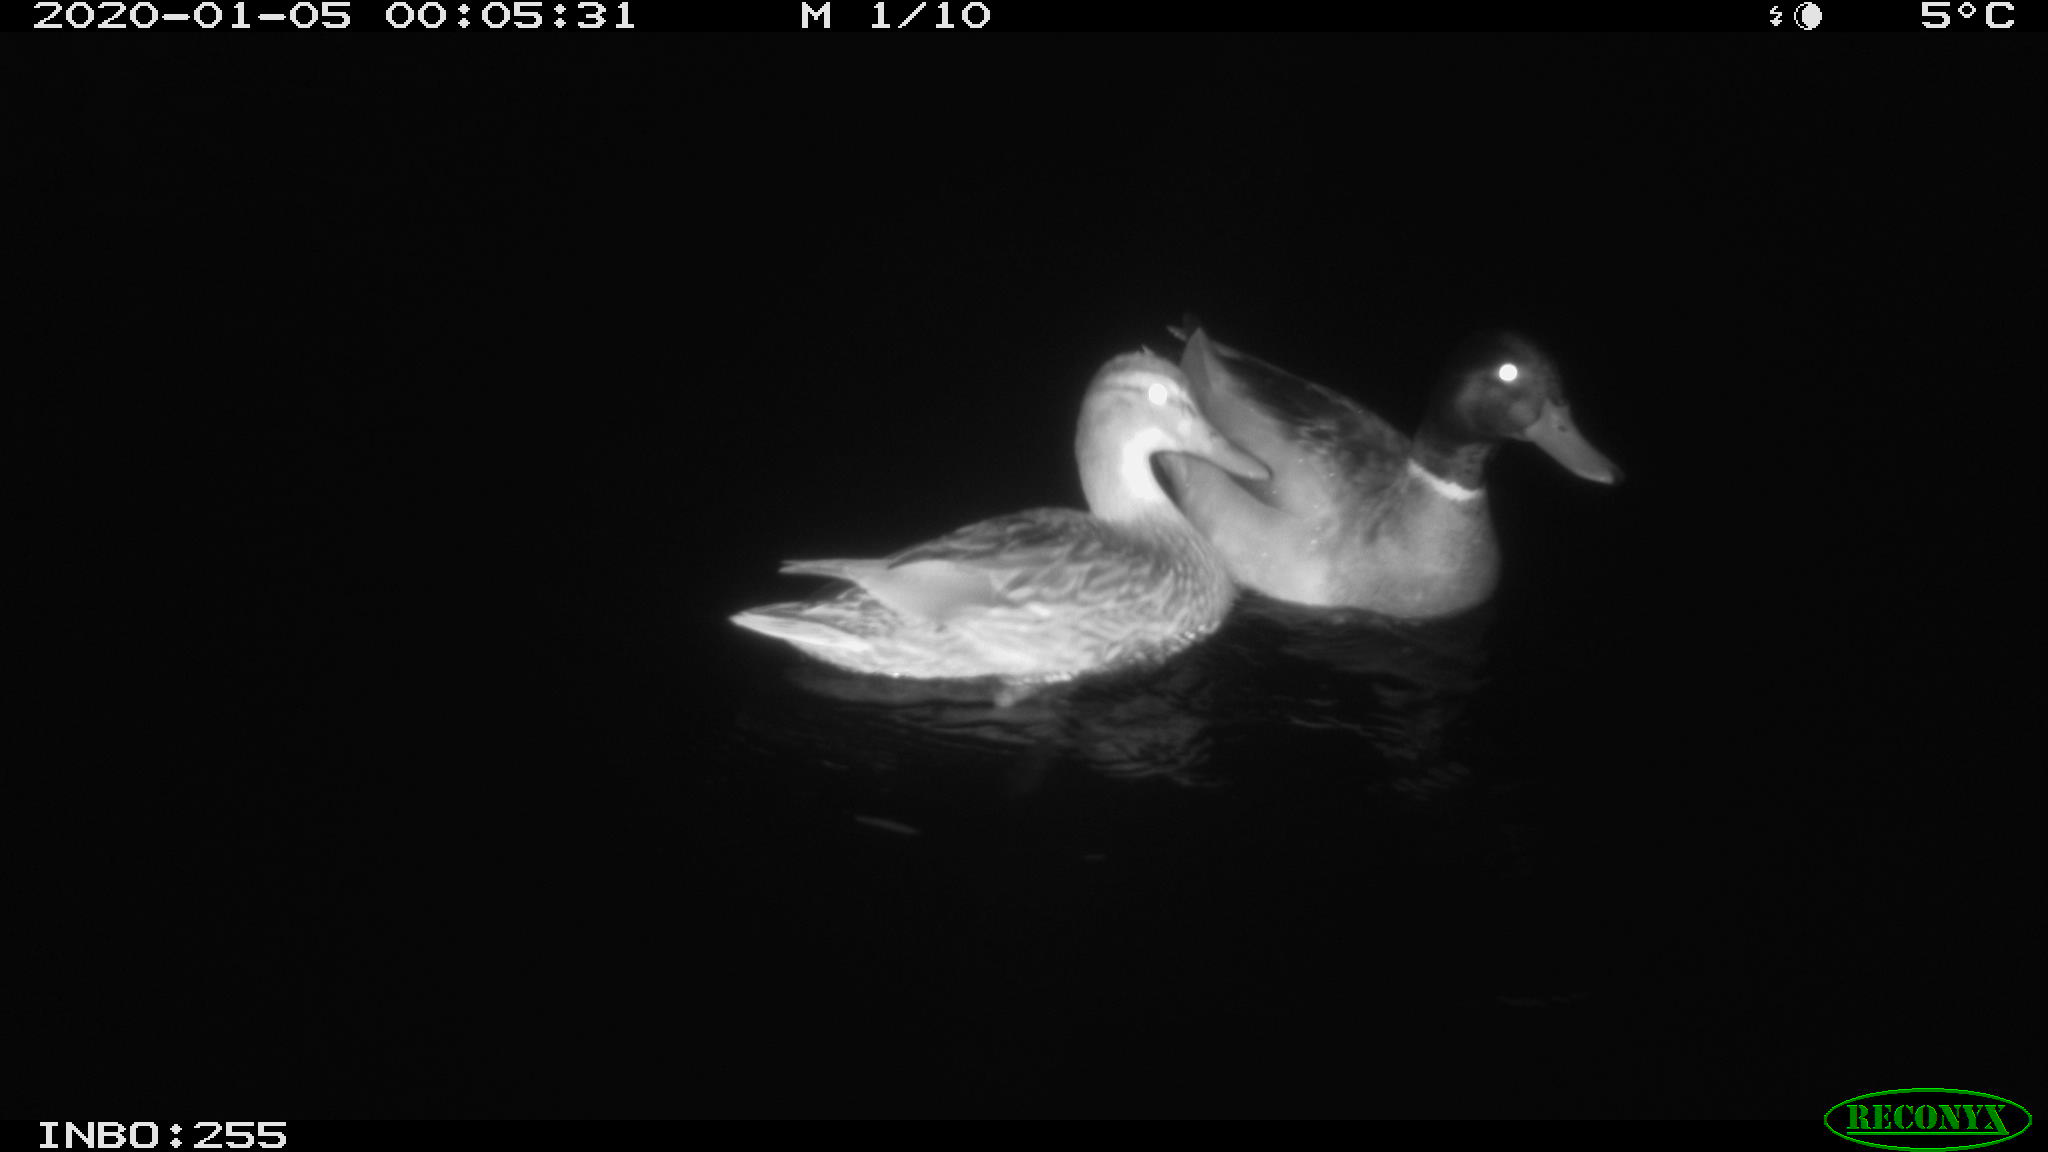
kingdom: Animalia
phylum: Chordata
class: Aves
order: Anseriformes
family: Anatidae
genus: Anas
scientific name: Anas platyrhynchos
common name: Mallard
